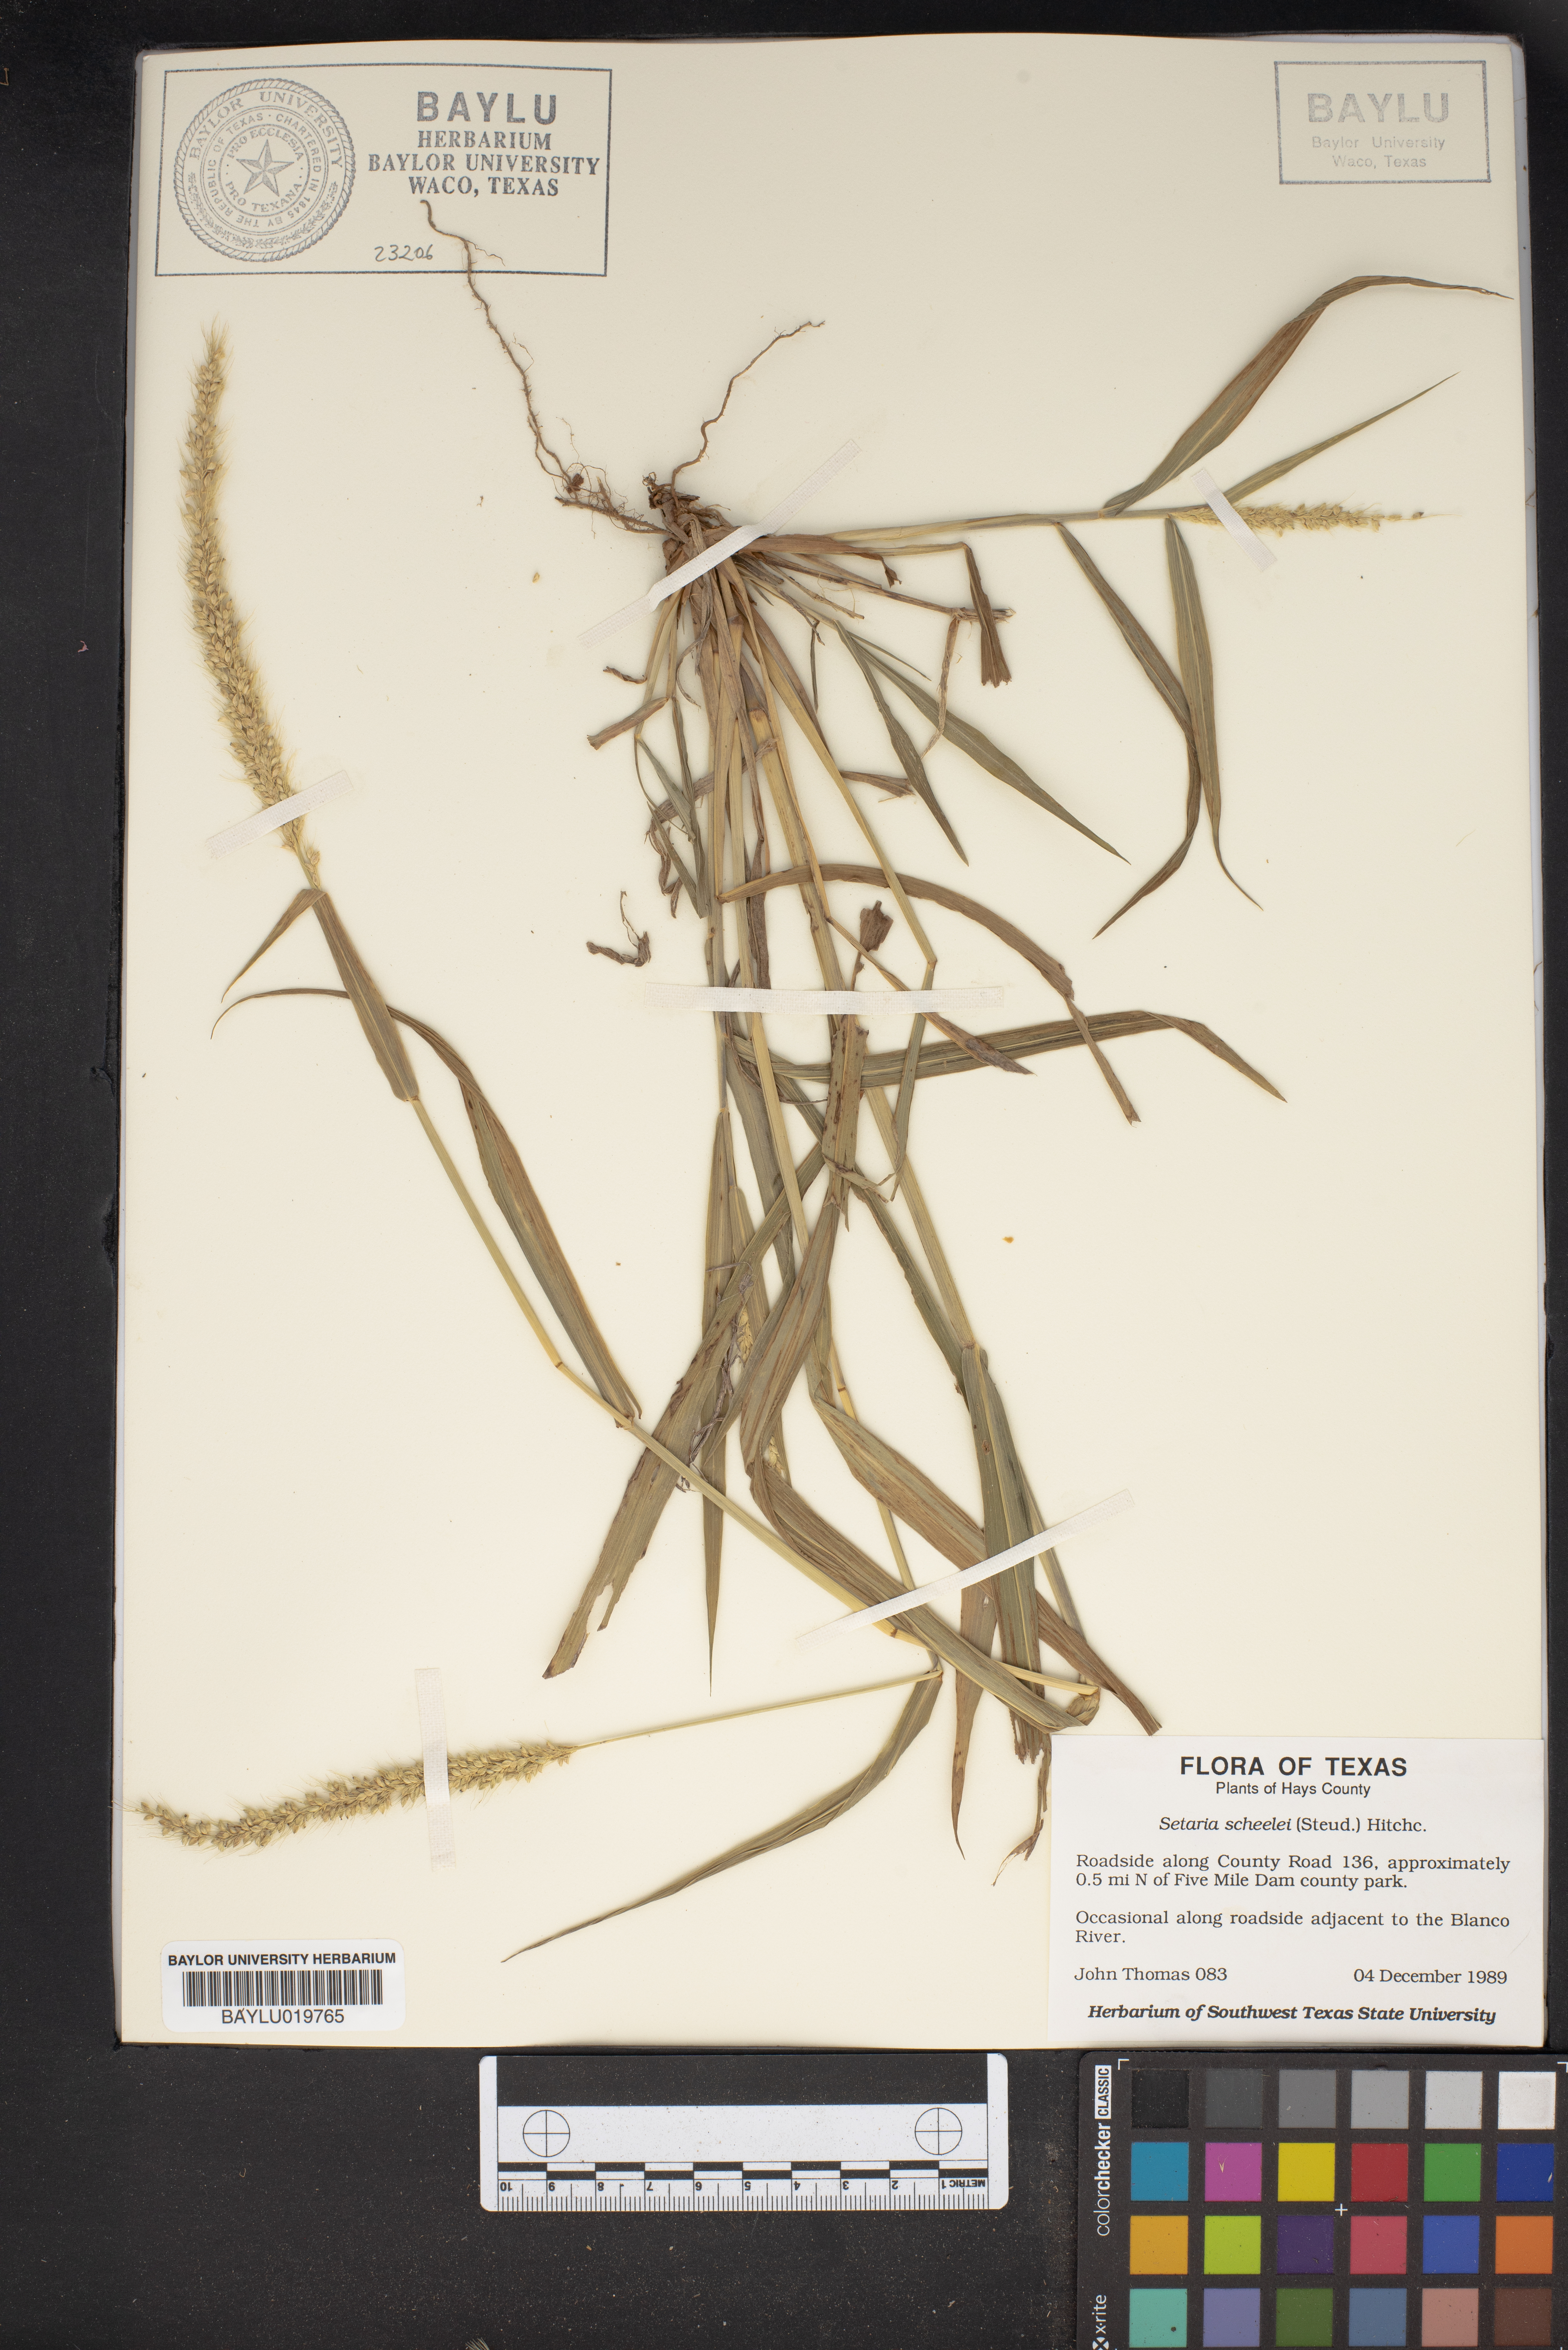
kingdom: Plantae
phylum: Tracheophyta
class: Liliopsida
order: Poales
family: Poaceae
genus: Setaria
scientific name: Setaria scheelei
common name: Southwestern bristle grass
